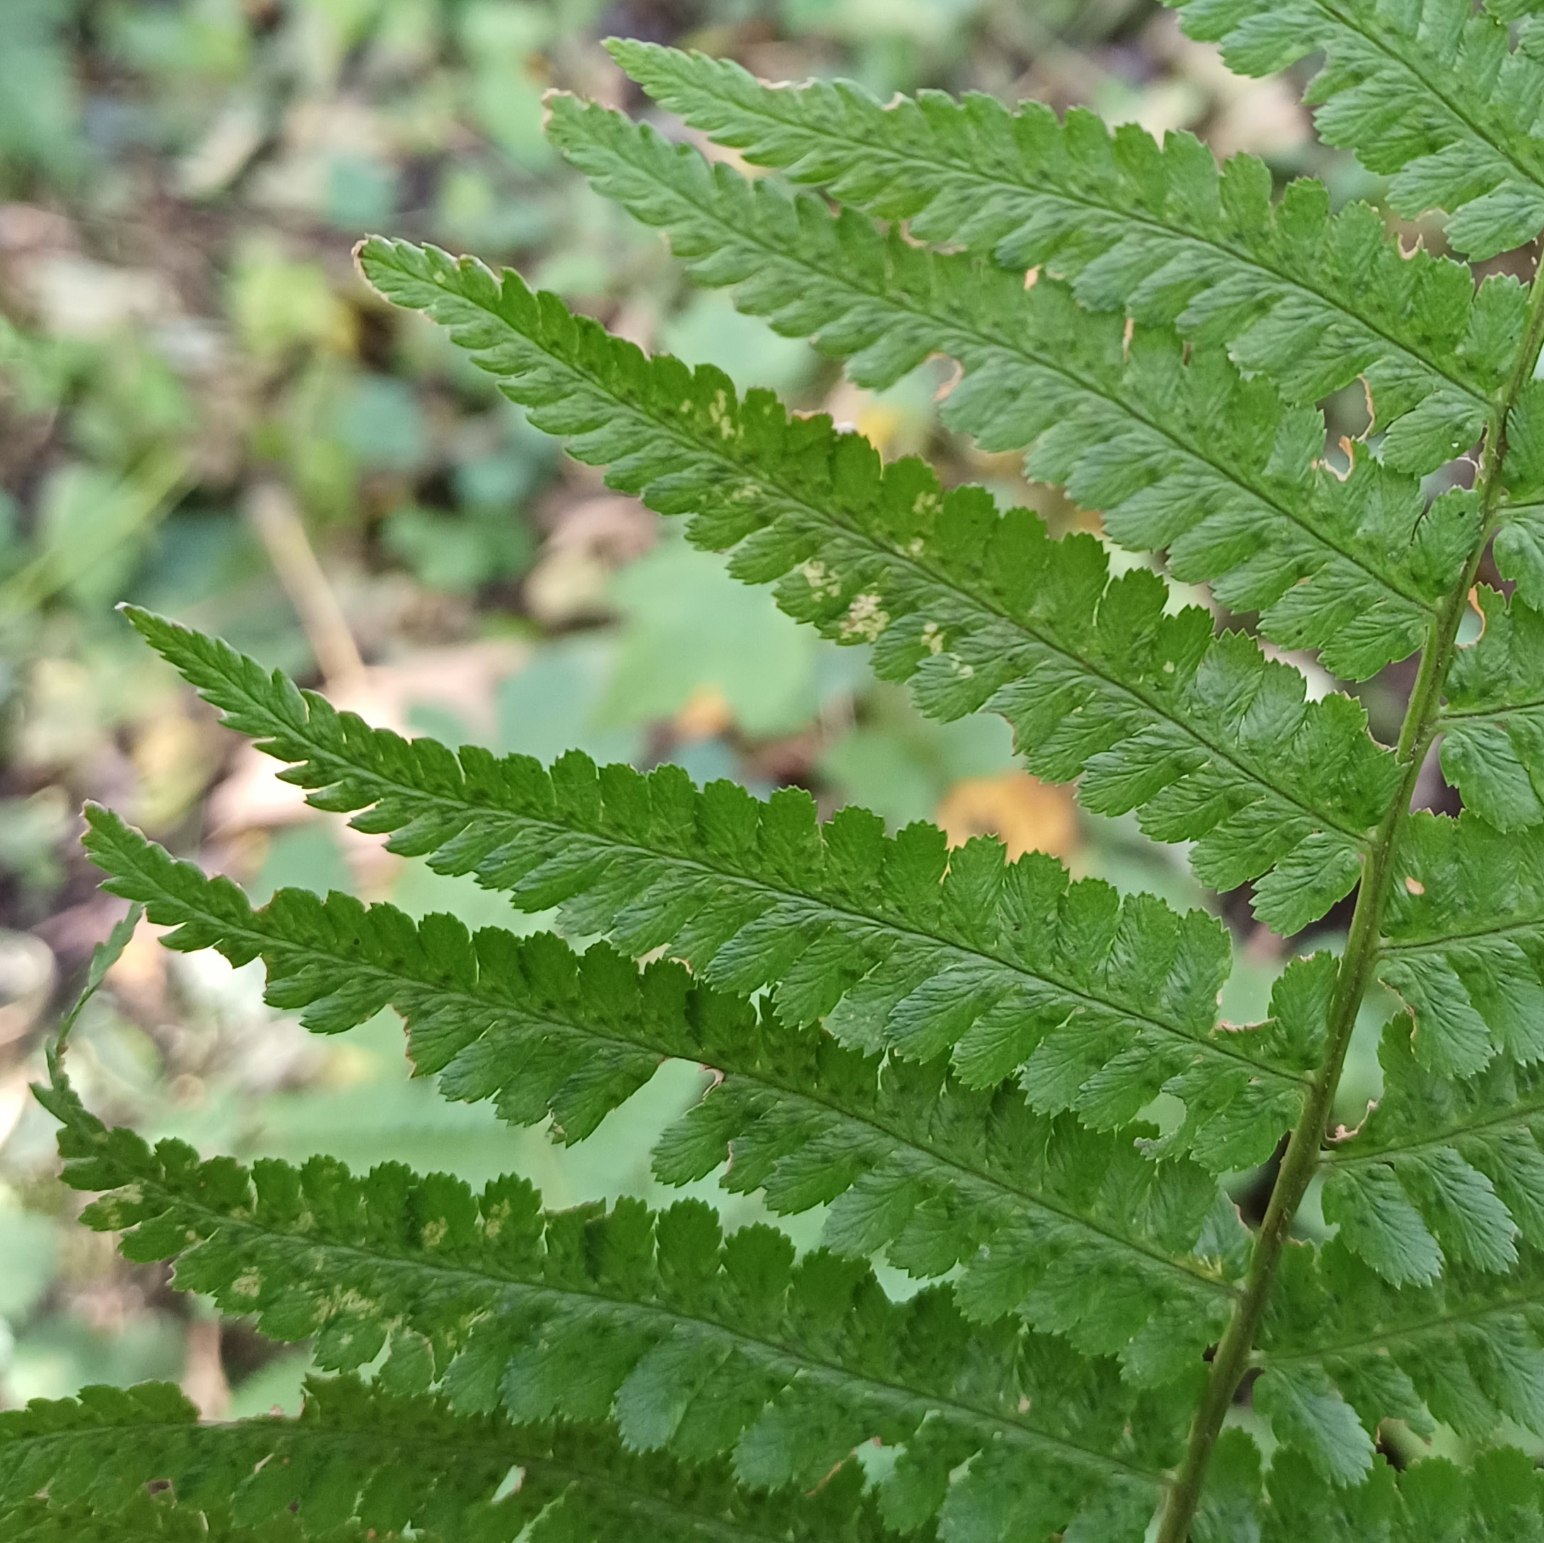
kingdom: Plantae
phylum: Tracheophyta
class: Polypodiopsida
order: Polypodiales
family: Dryopteridaceae
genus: Dryopteris
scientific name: Dryopteris filix-mas
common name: Almindelig mangeløv
